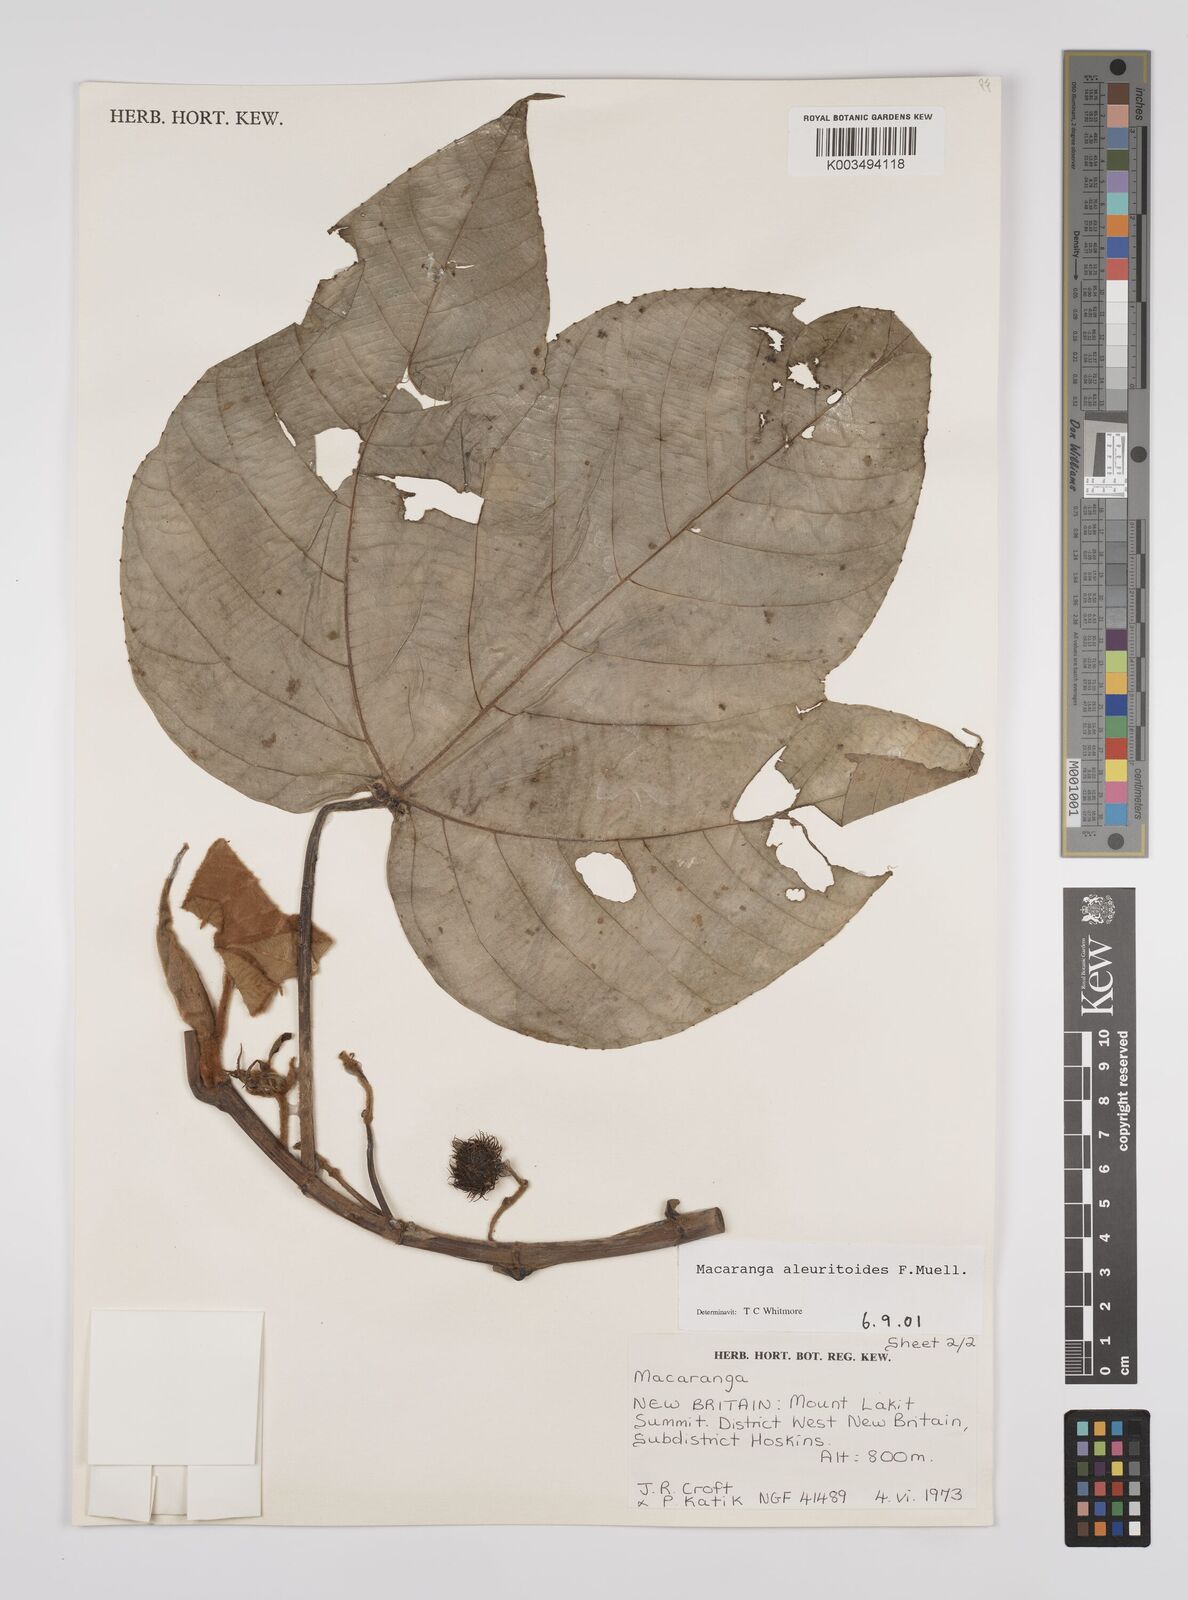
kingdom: Plantae
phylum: Tracheophyta
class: Magnoliopsida
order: Malpighiales
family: Euphorbiaceae
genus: Macaranga
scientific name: Macaranga aleuritoides
